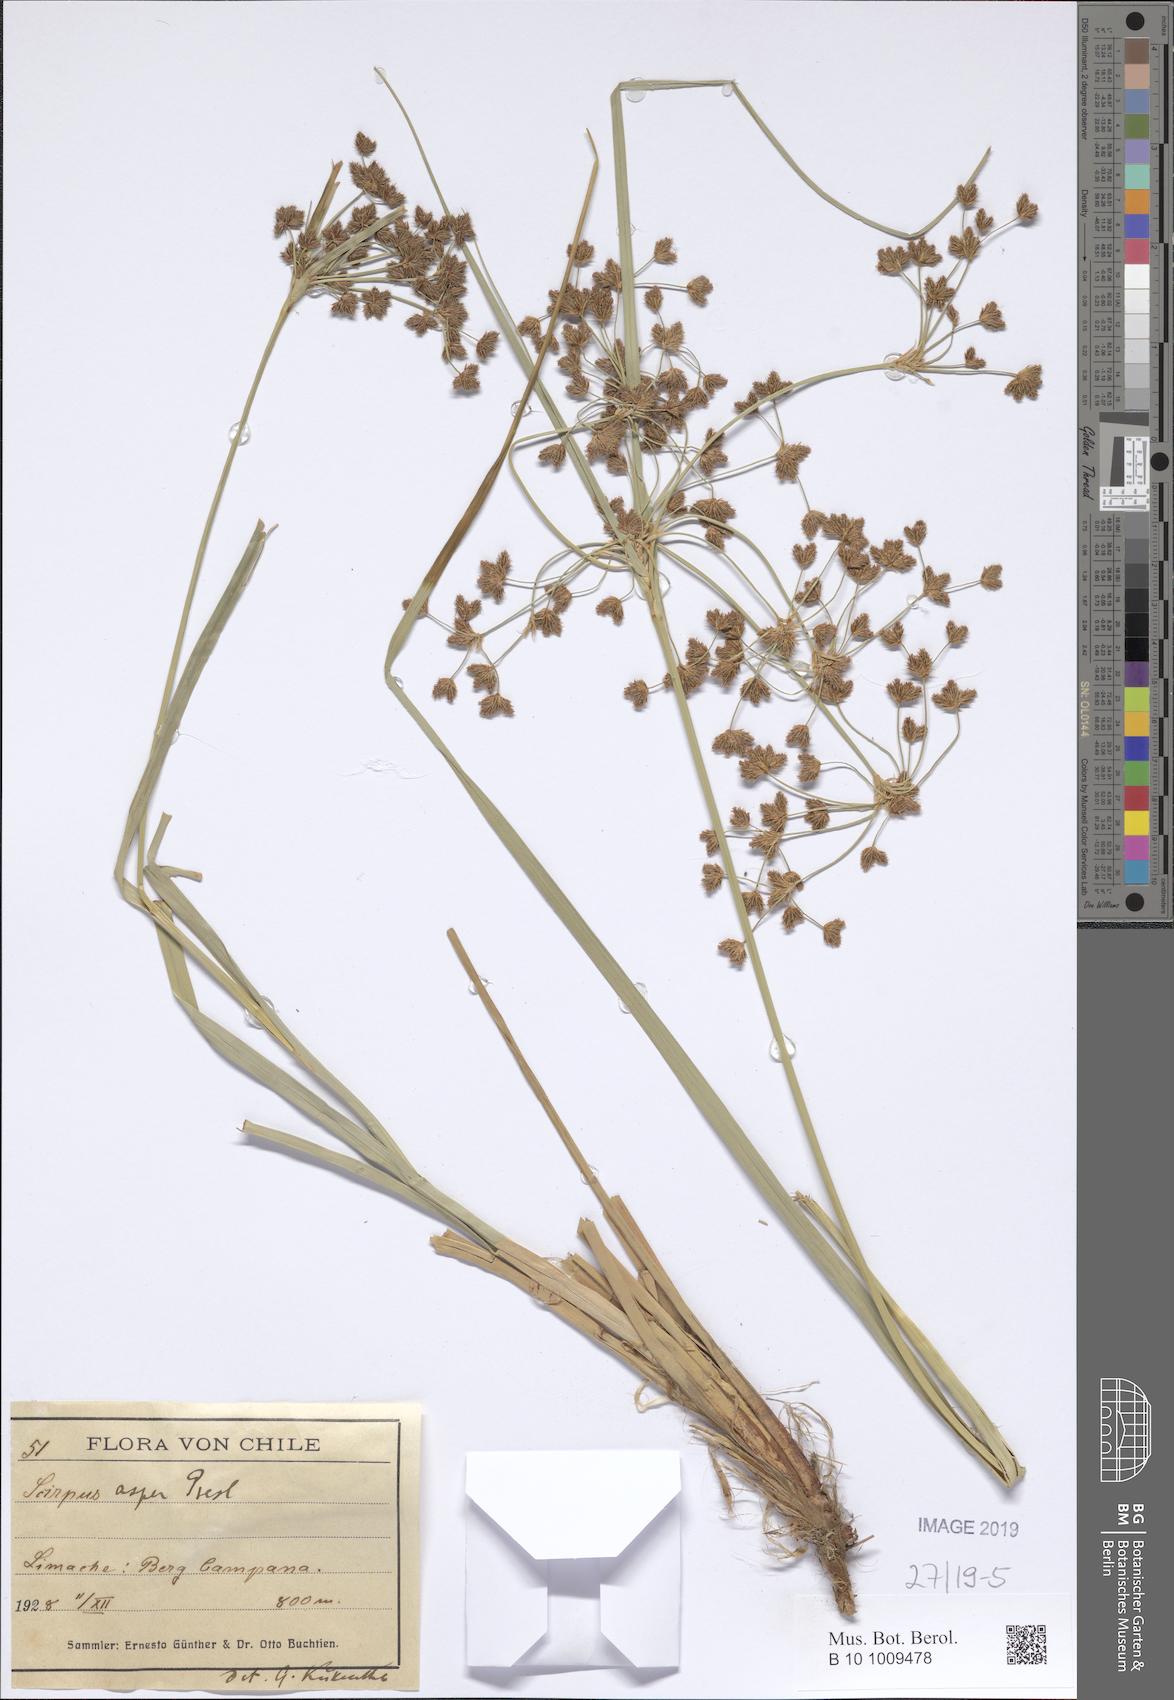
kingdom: Plantae
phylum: Tracheophyta
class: Liliopsida
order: Poales
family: Cyperaceae
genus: Rhodoscirpus
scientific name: Rhodoscirpus asper
